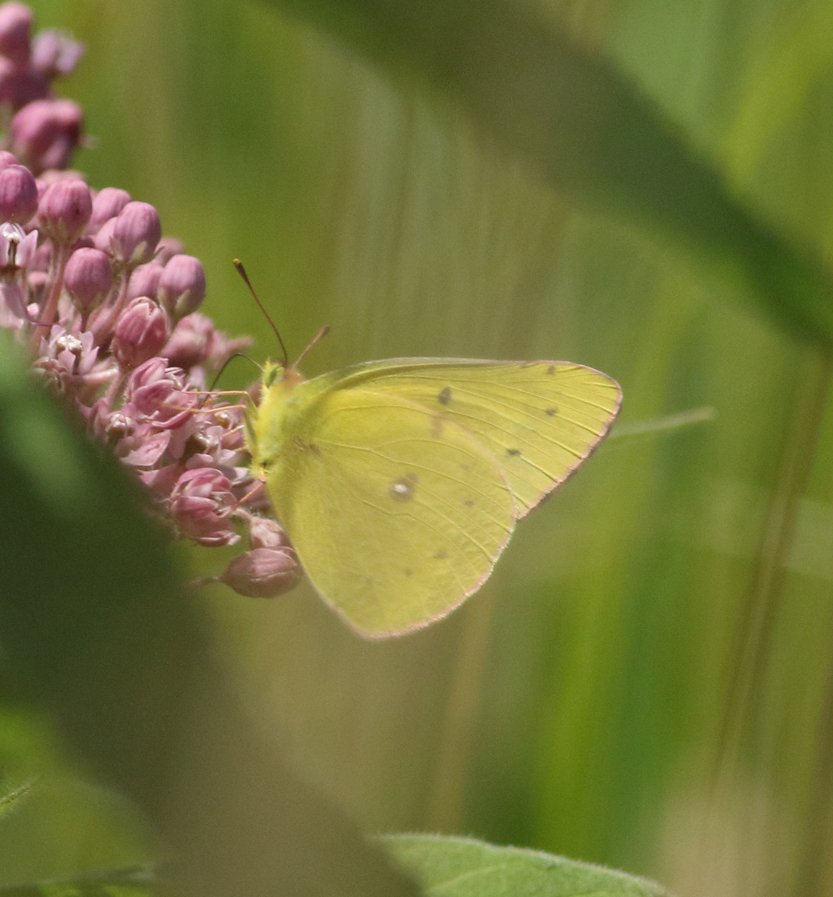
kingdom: Animalia
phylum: Arthropoda
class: Insecta
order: Lepidoptera
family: Pieridae
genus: Colias
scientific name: Colias eurytheme
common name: Orange Sulphur
